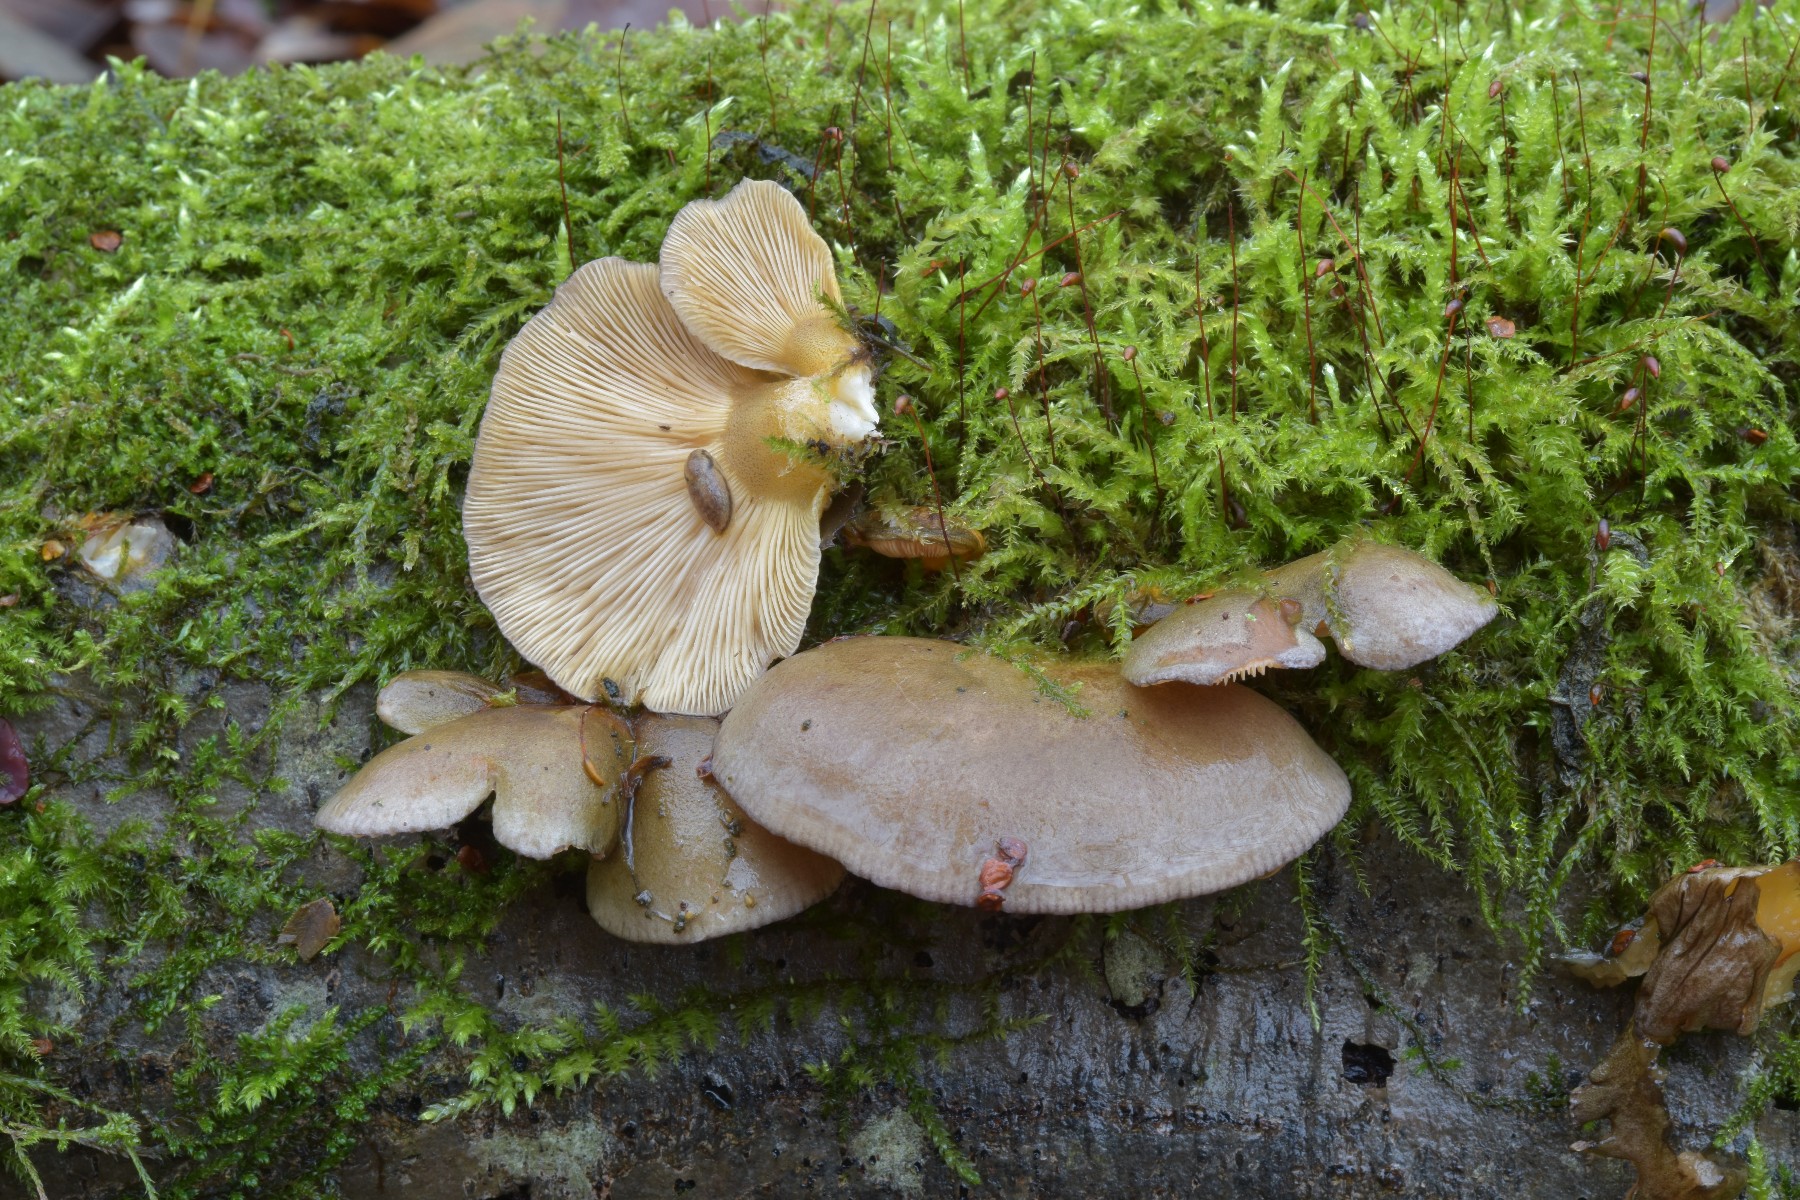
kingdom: Fungi
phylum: Basidiomycota
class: Agaricomycetes
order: Agaricales
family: Sarcomyxaceae
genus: Sarcomyxa
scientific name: Sarcomyxa serotina
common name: gummihat
